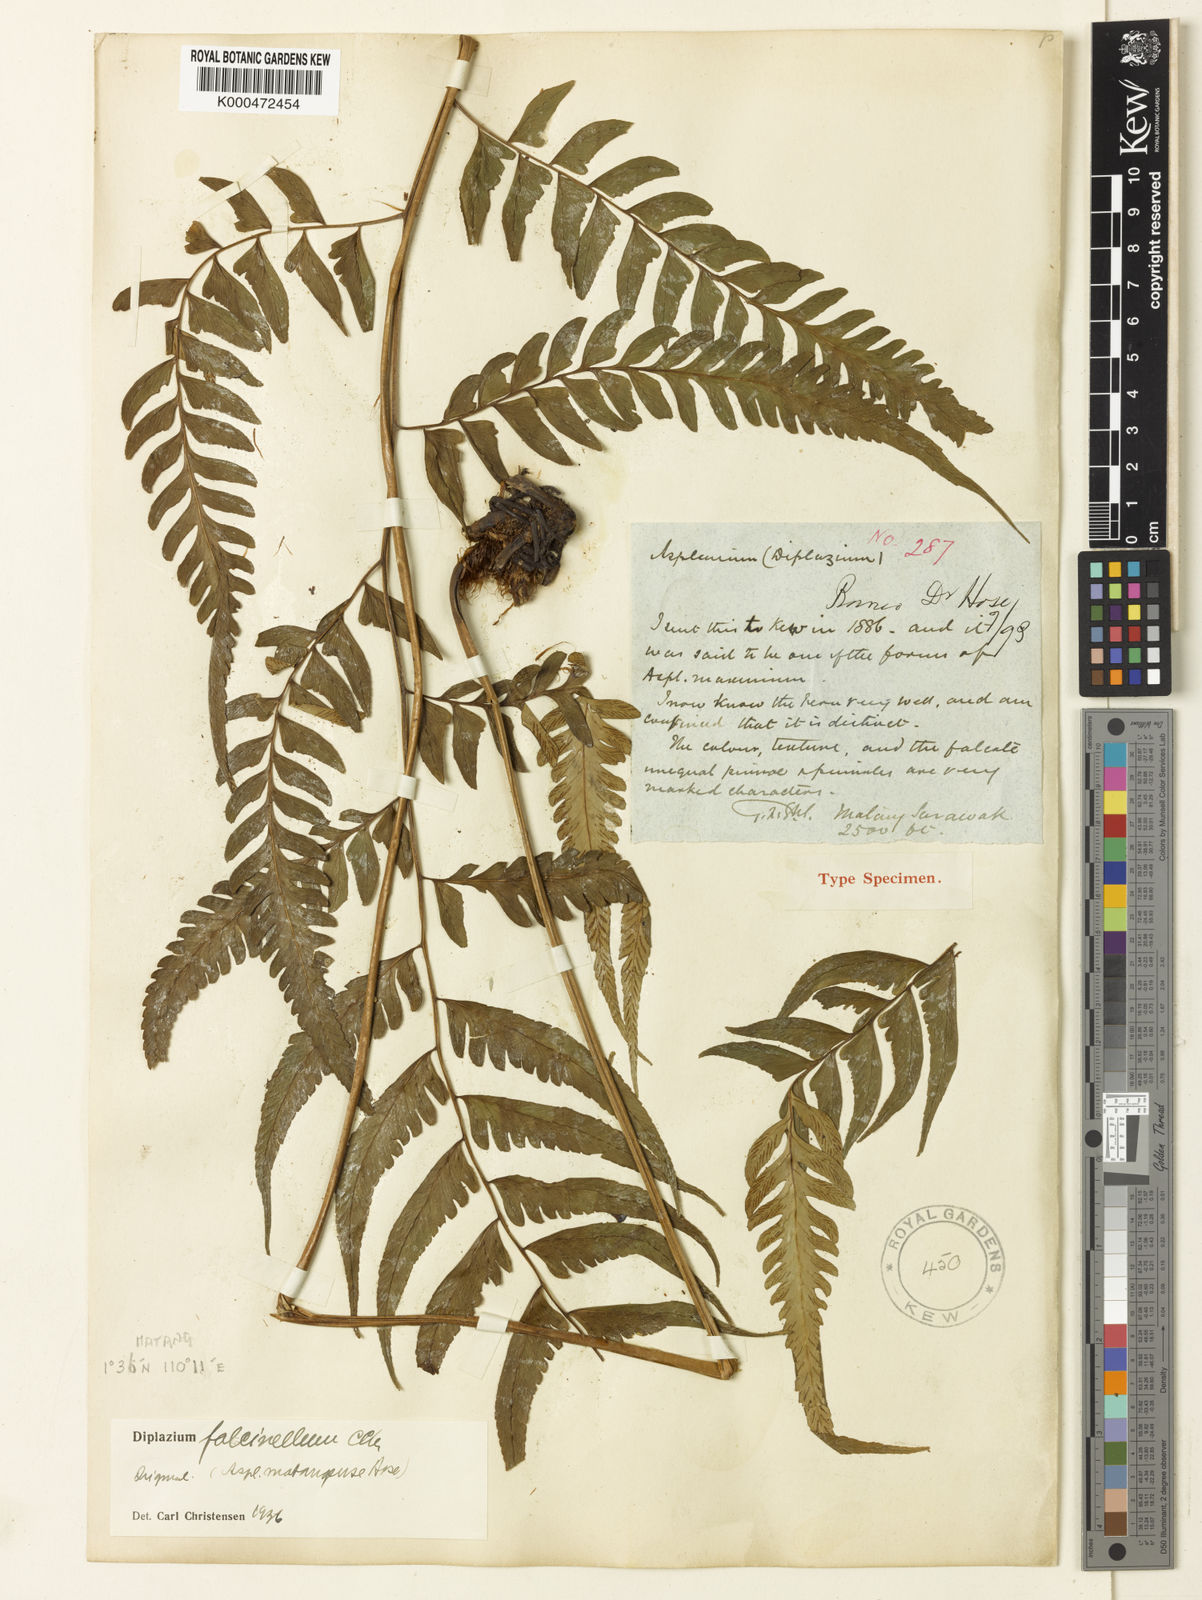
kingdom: Plantae
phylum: Tracheophyta
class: Polypodiopsida
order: Polypodiales
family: Athyriaceae
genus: Diplazium
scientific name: Diplazium falcinellum
